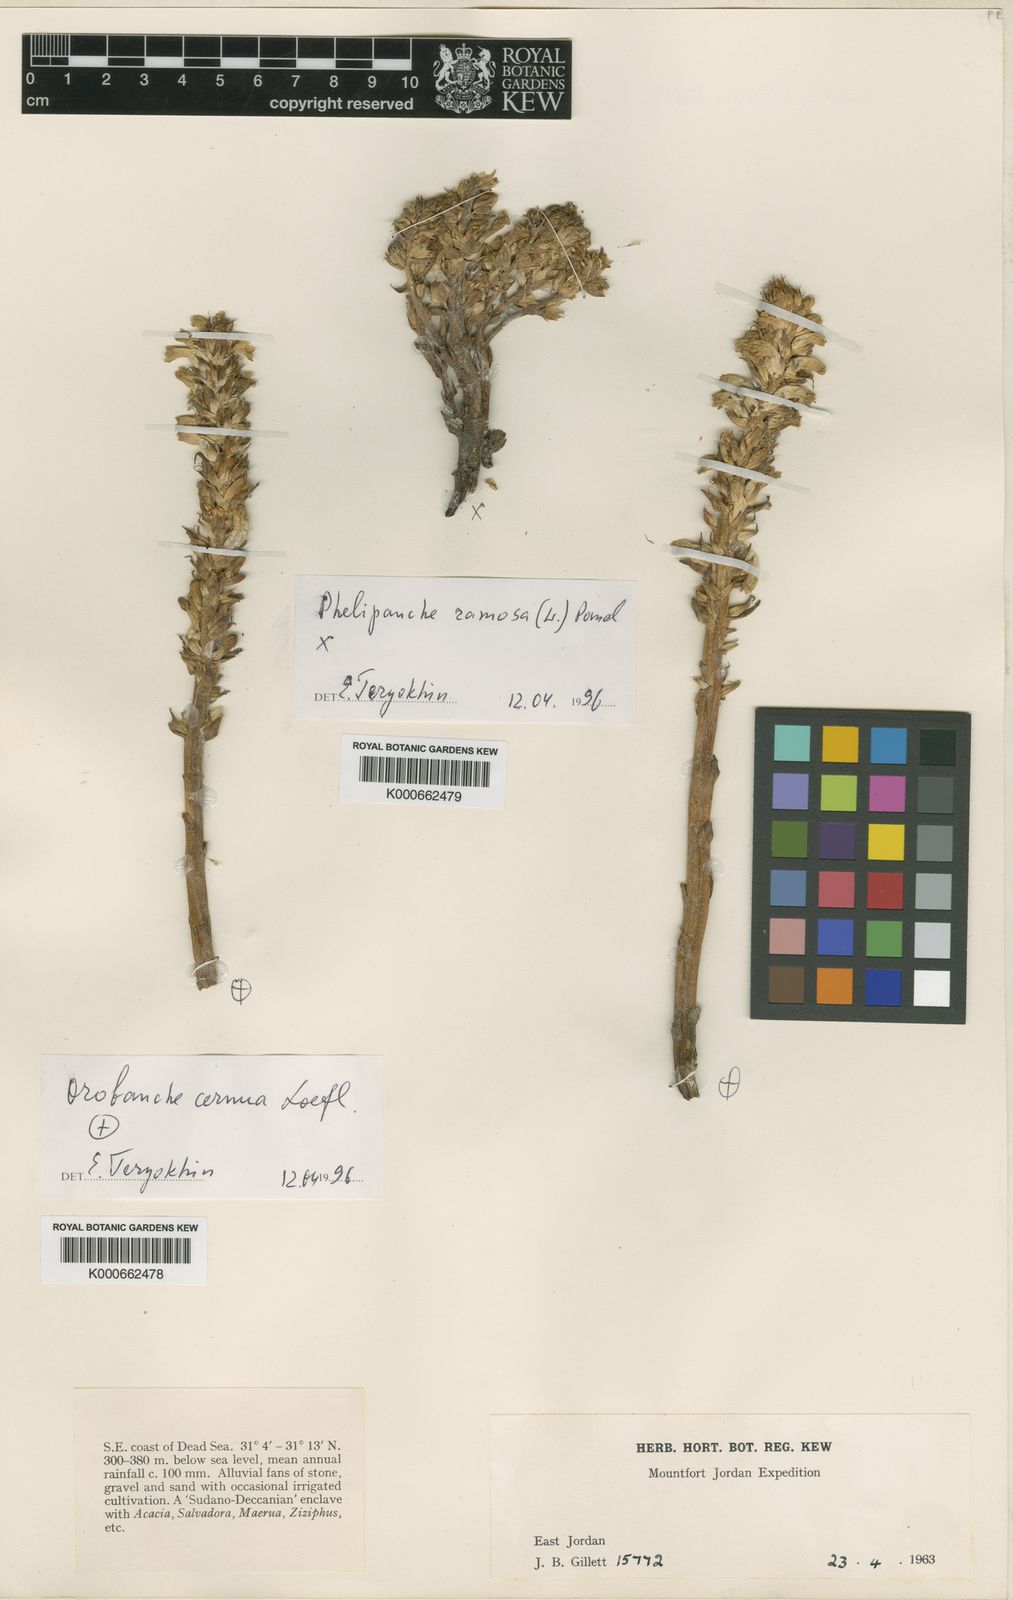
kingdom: Plantae
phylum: Tracheophyta
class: Magnoliopsida
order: Lamiales
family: Orobanchaceae
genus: Orobanche
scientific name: Orobanche cernua
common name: Australian broomrape
